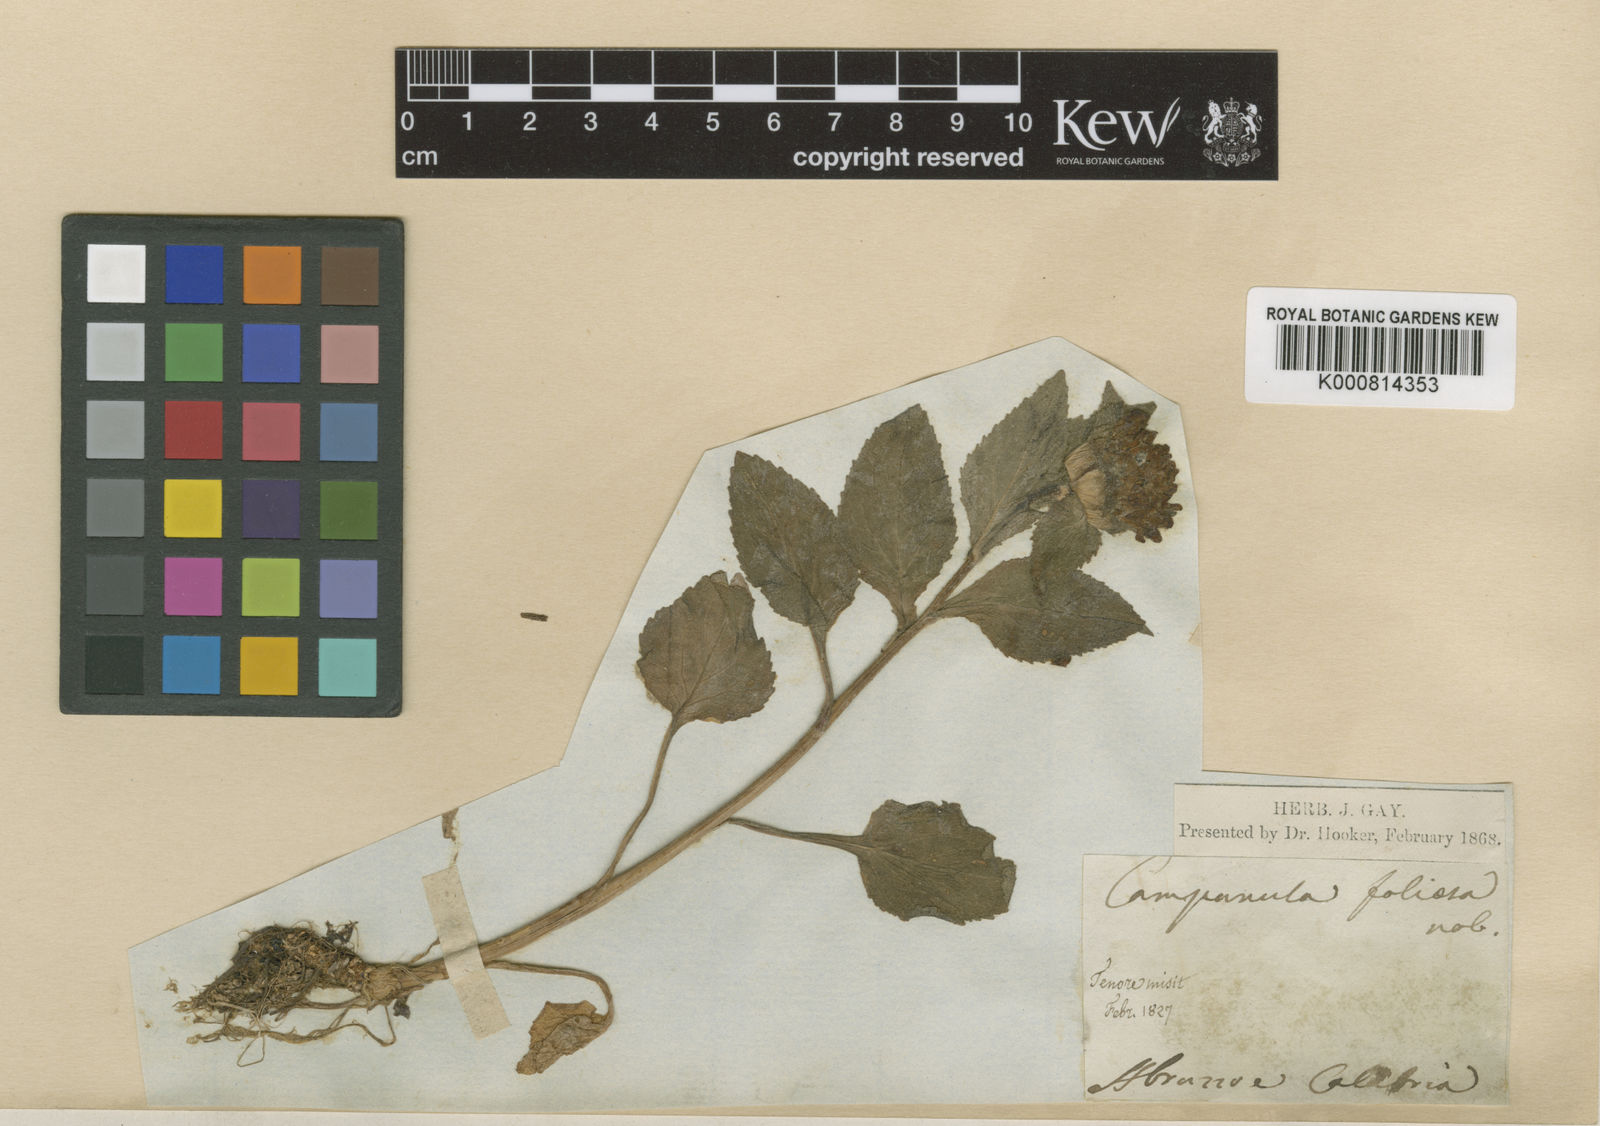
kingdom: Plantae
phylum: Tracheophyta
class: Magnoliopsida
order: Asterales
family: Campanulaceae
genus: Campanula
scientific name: Campanula foliosa
